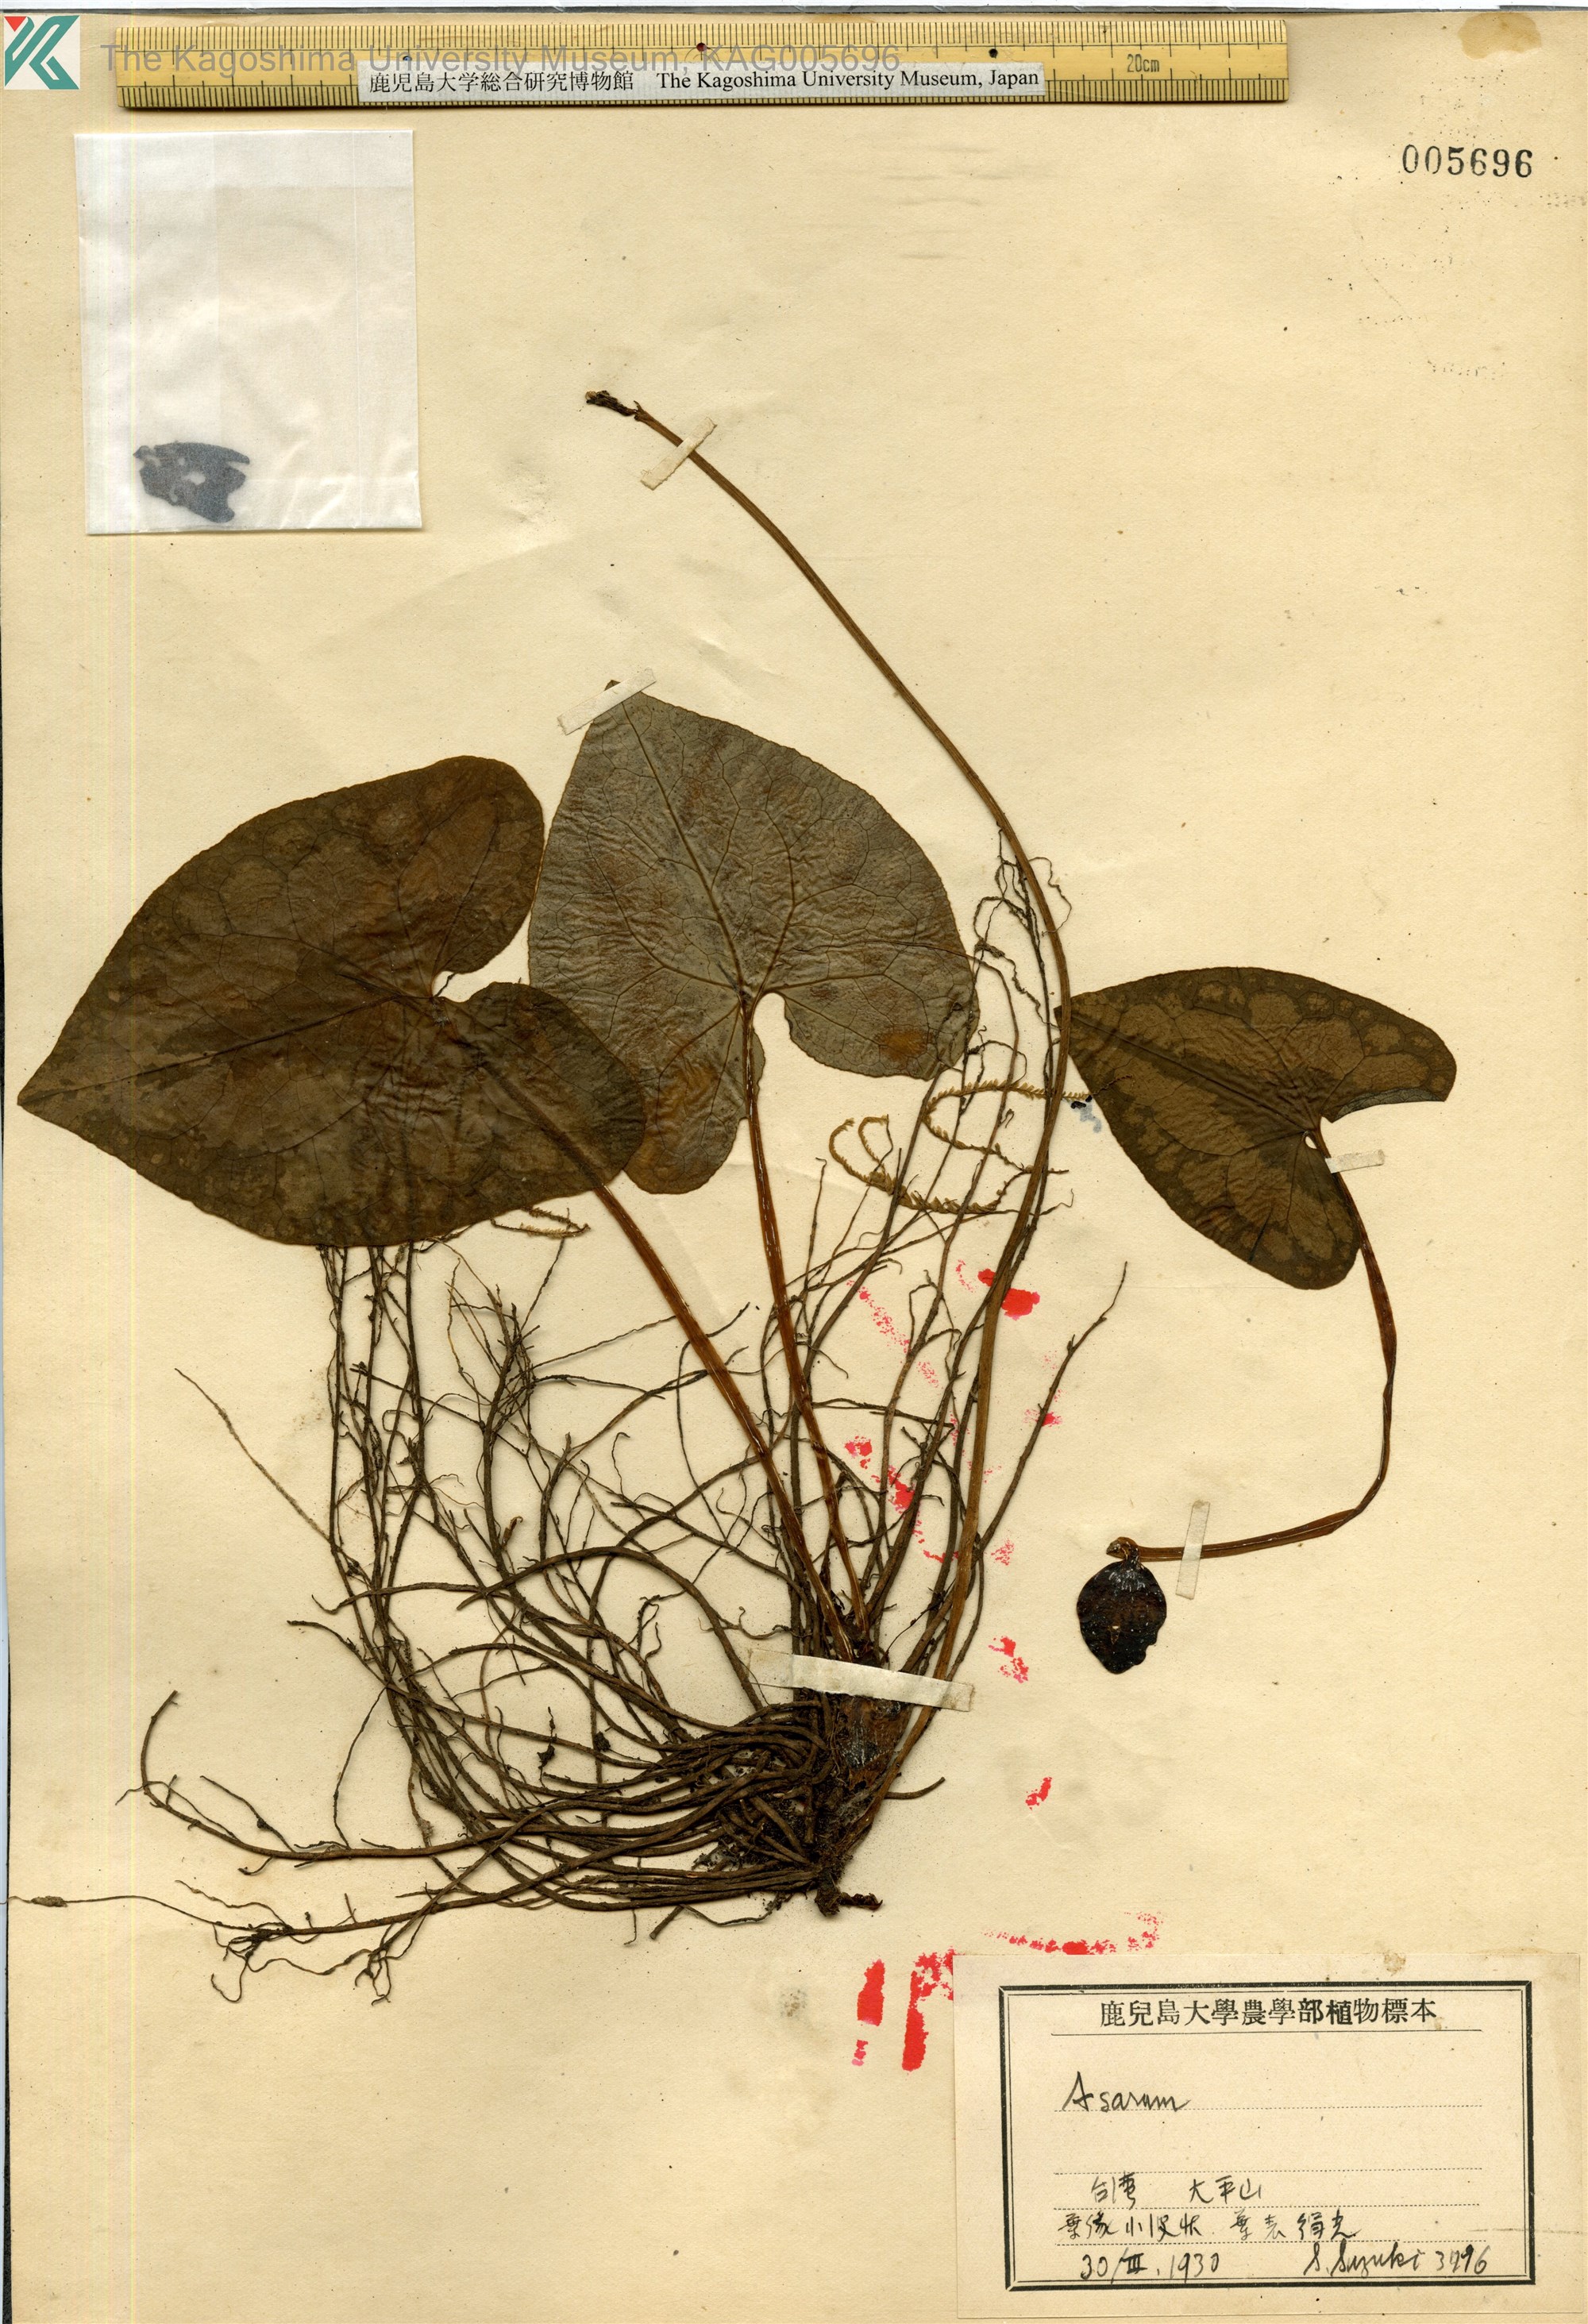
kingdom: Plantae
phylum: Tracheophyta
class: Magnoliopsida
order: Piperales
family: Aristolochiaceae
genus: Asarum
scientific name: Asarum macranthum
